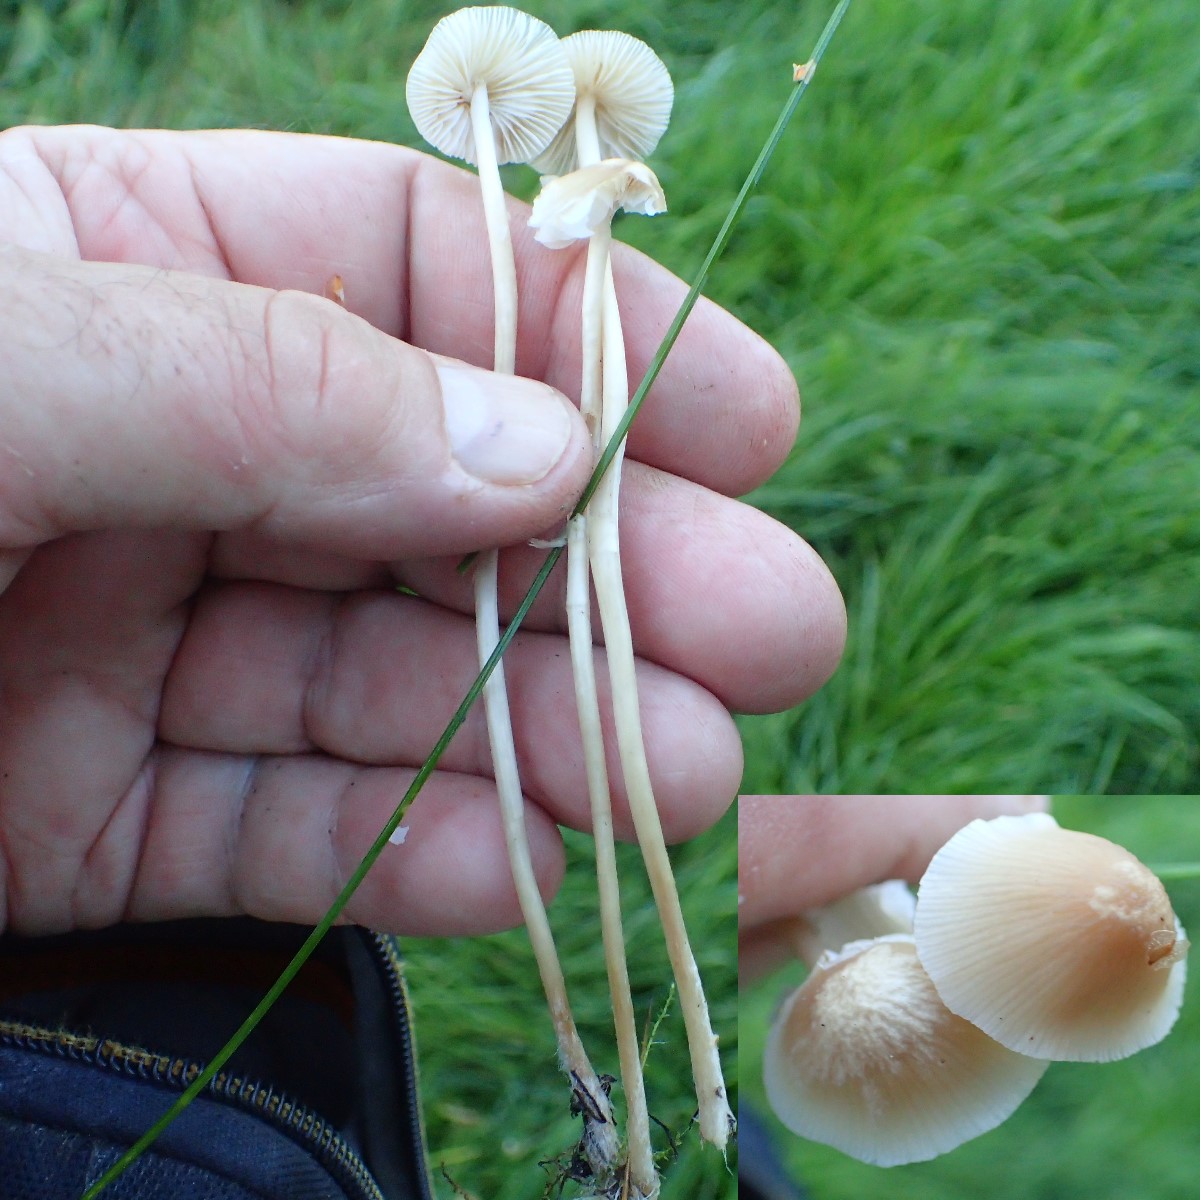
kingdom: Fungi
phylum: Basidiomycota
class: Agaricomycetes
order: Agaricales
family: Mycenaceae
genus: Mycena
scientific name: Mycena
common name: huesvamp
